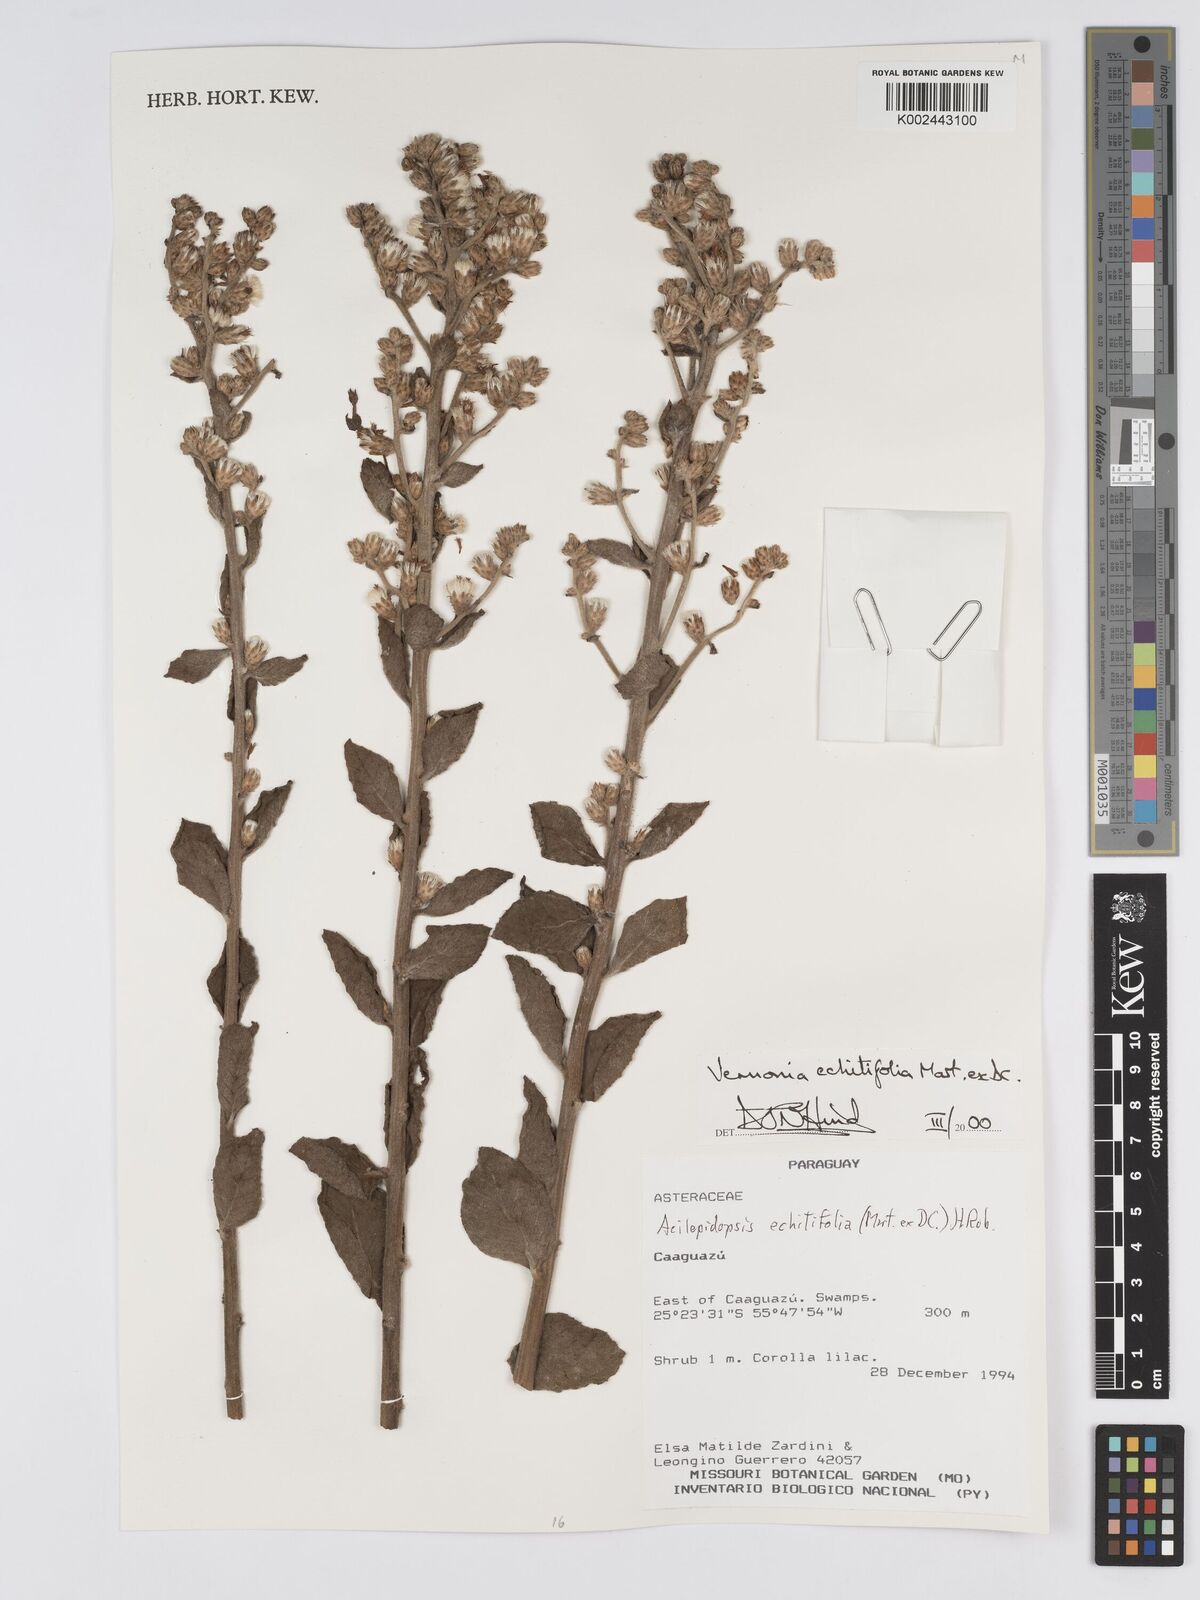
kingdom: Plantae
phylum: Tracheophyta
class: Magnoliopsida
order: Asterales
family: Asteraceae
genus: Acilepidopsis
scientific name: Acilepidopsis echitifolia
